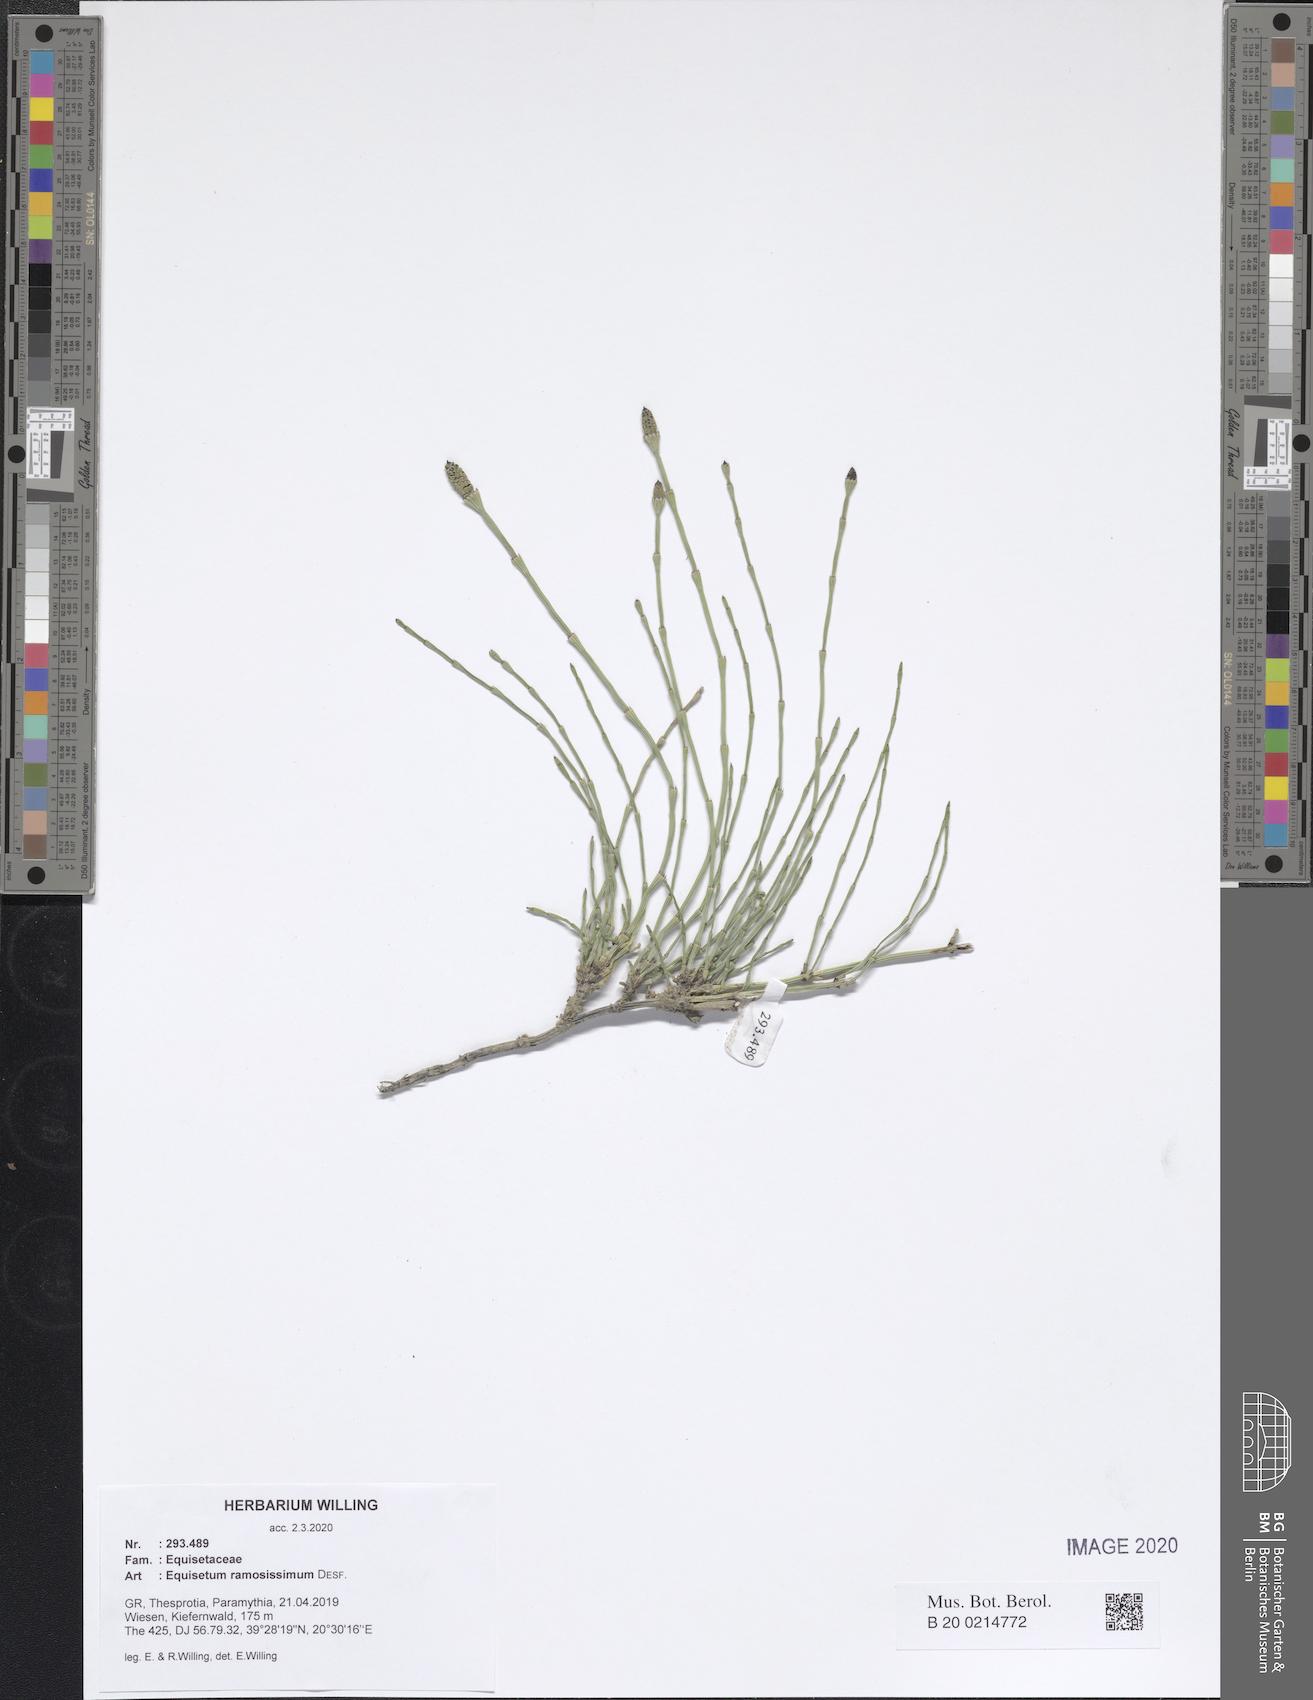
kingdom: Plantae
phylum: Tracheophyta
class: Polypodiopsida
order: Equisetales
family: Equisetaceae
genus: Equisetum
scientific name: Equisetum ramosissimum
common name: Branched horsetail
